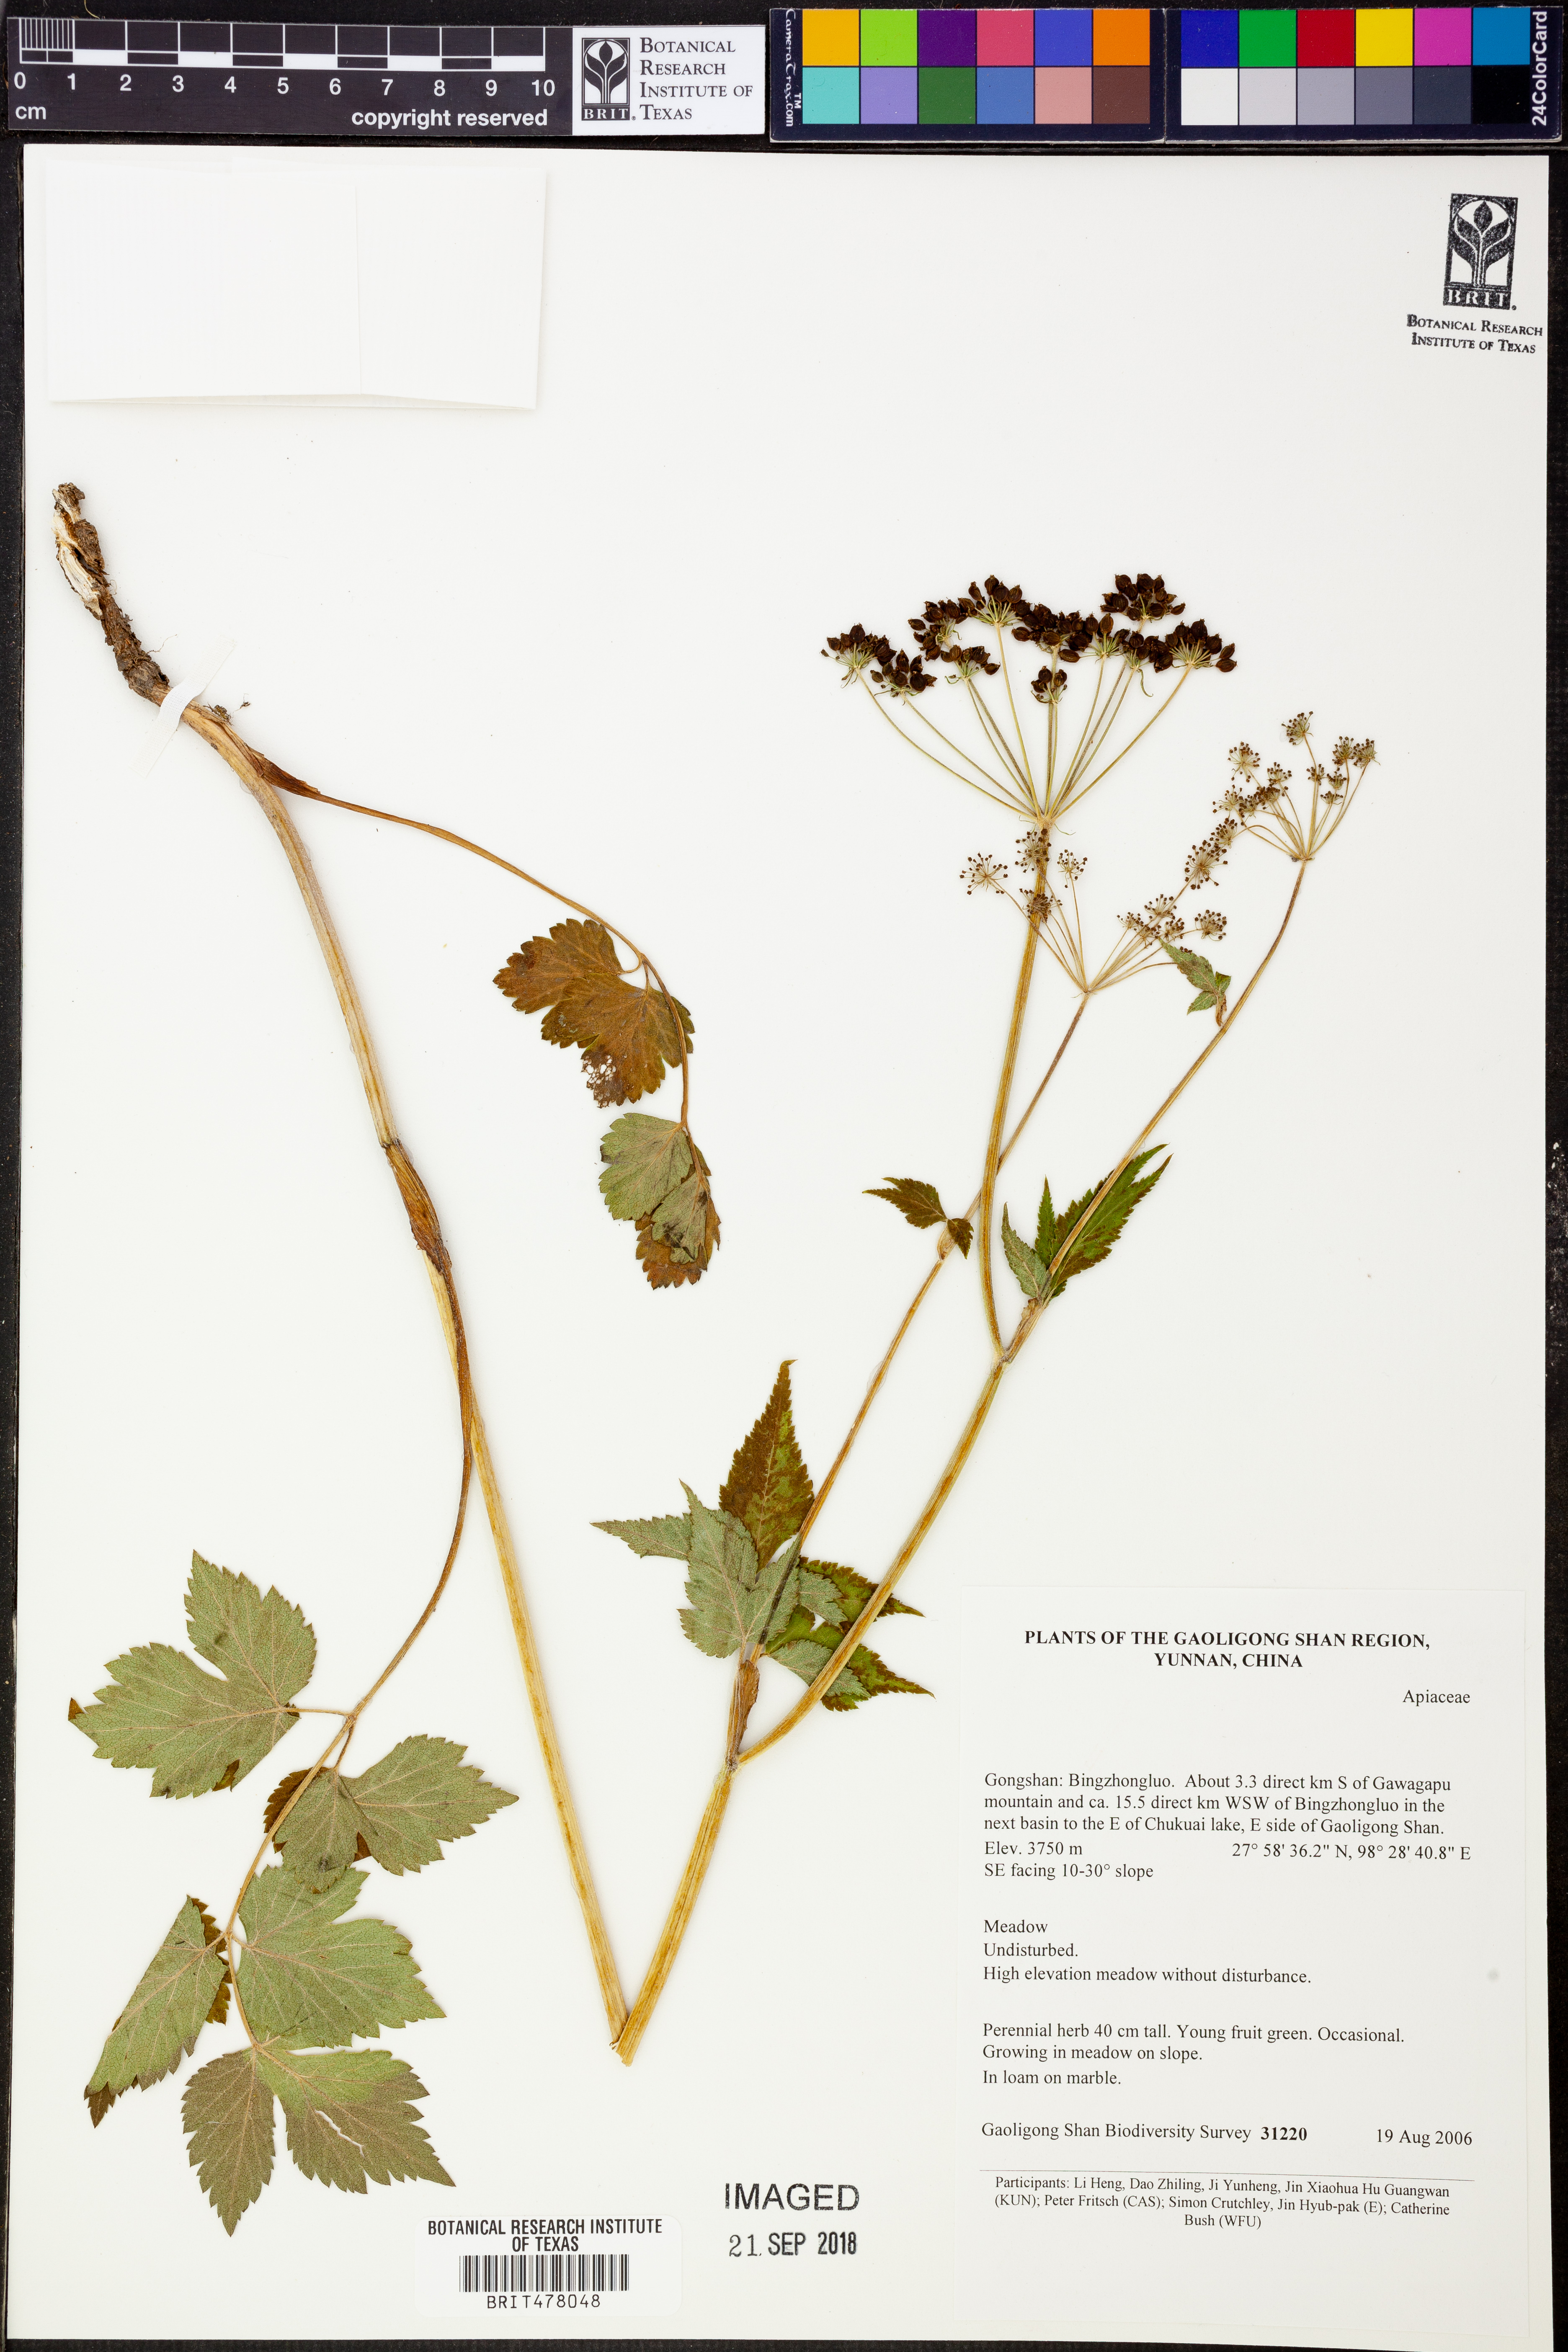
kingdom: Plantae
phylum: Tracheophyta
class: Magnoliopsida
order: Apiales
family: Apiaceae
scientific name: Apiaceae
